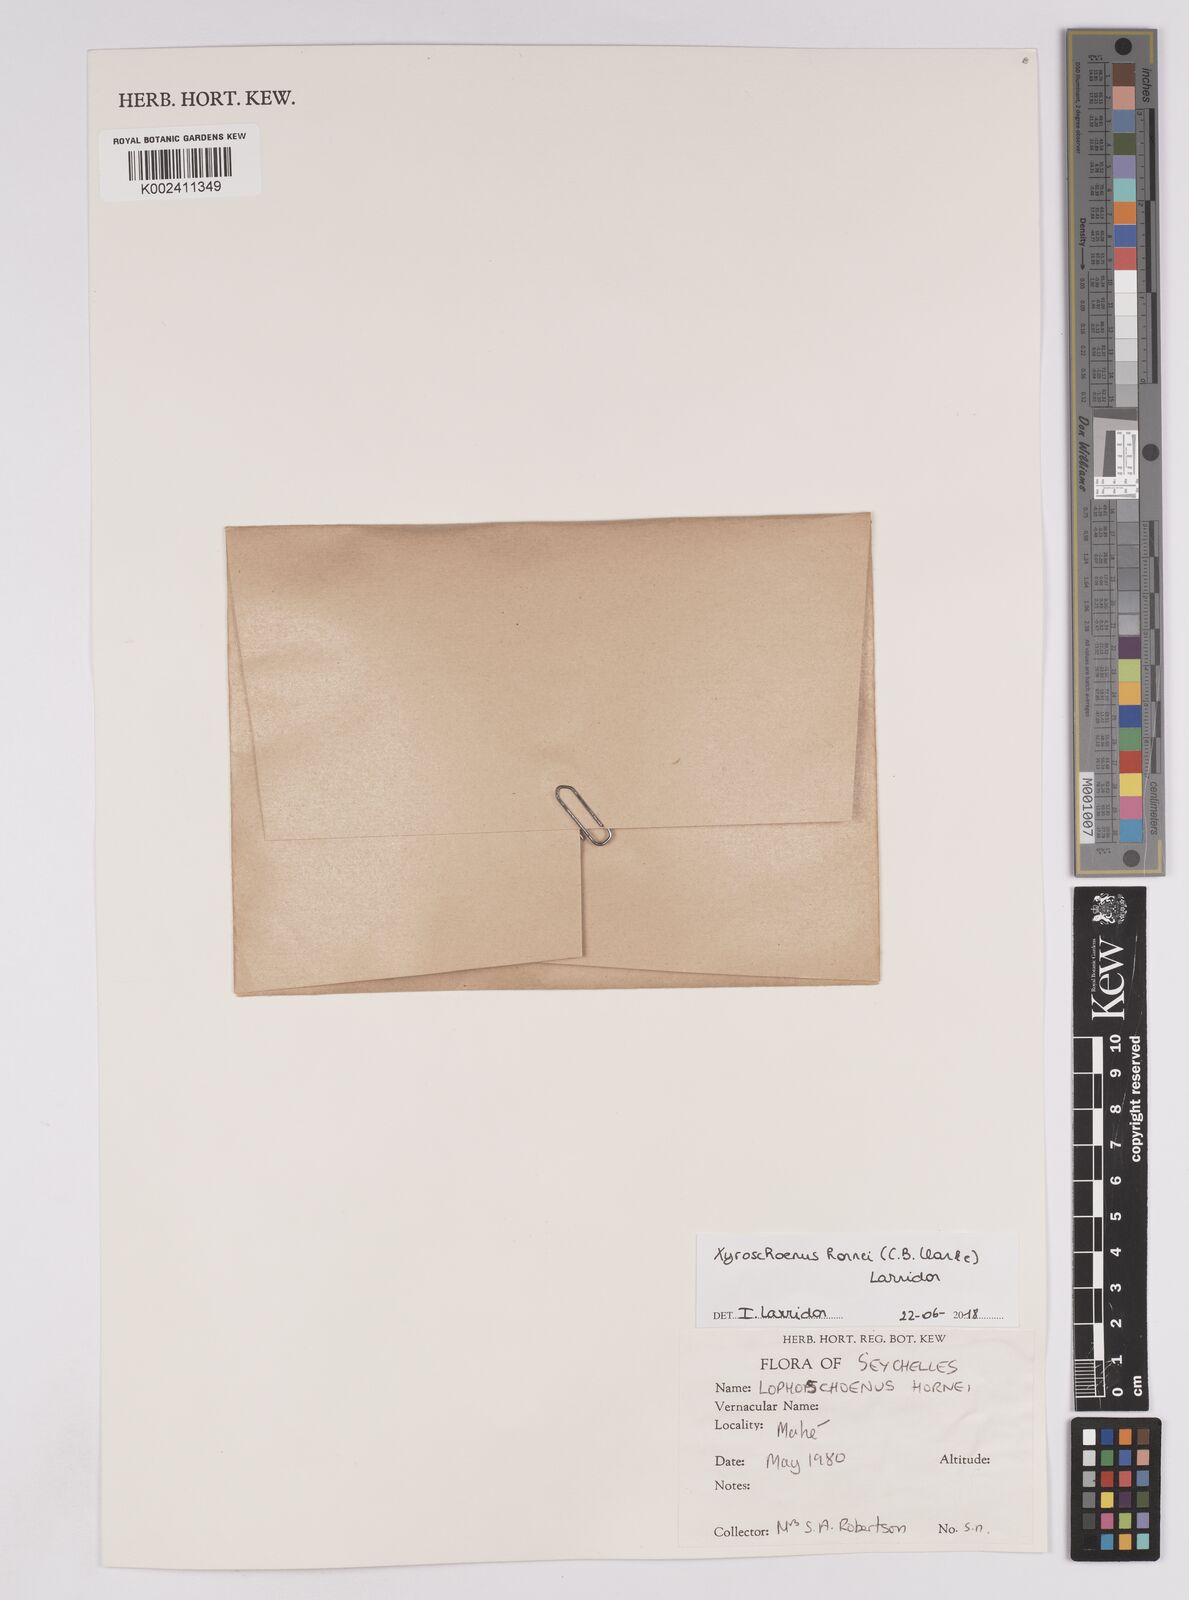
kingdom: Plantae
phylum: Tracheophyta
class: Liliopsida
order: Poales
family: Cyperaceae
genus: Xyroschoenus
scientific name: Xyroschoenus hornei
